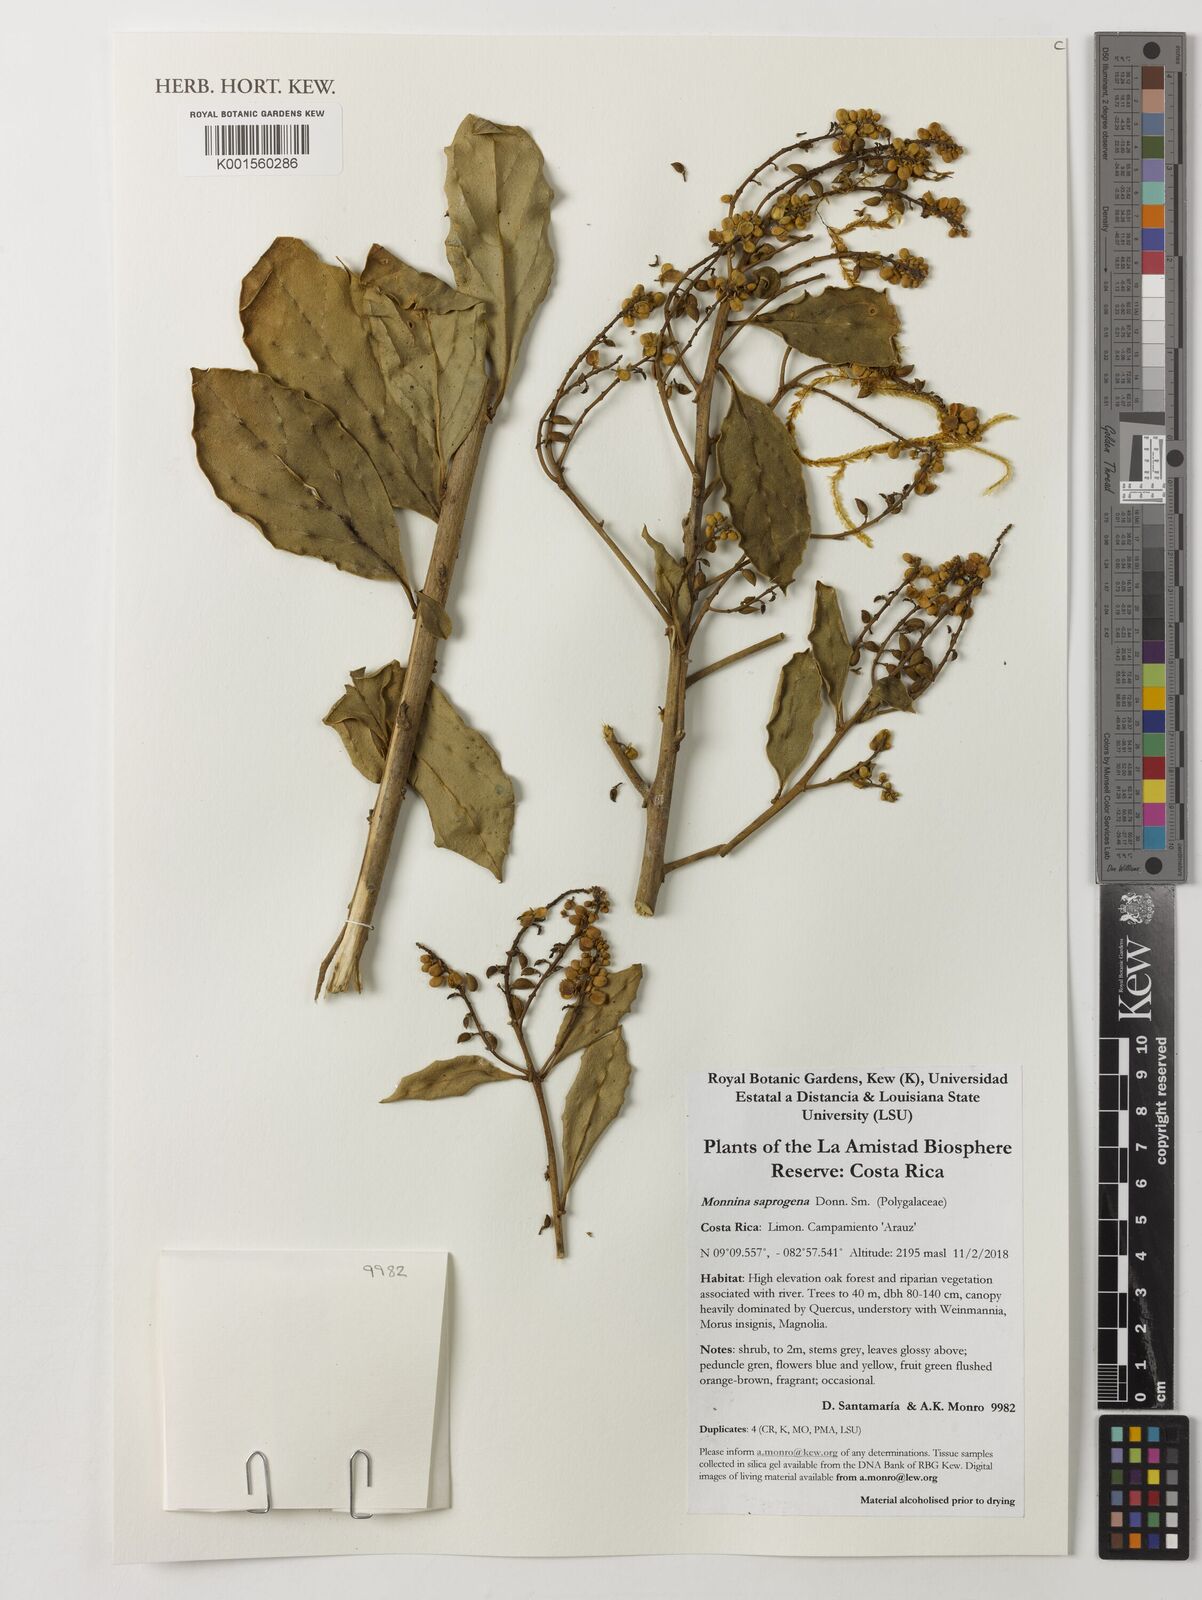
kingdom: Plantae
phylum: Tracheophyta
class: Magnoliopsida
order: Fabales
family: Polygalaceae
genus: Monnina
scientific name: Monnina saprogena
